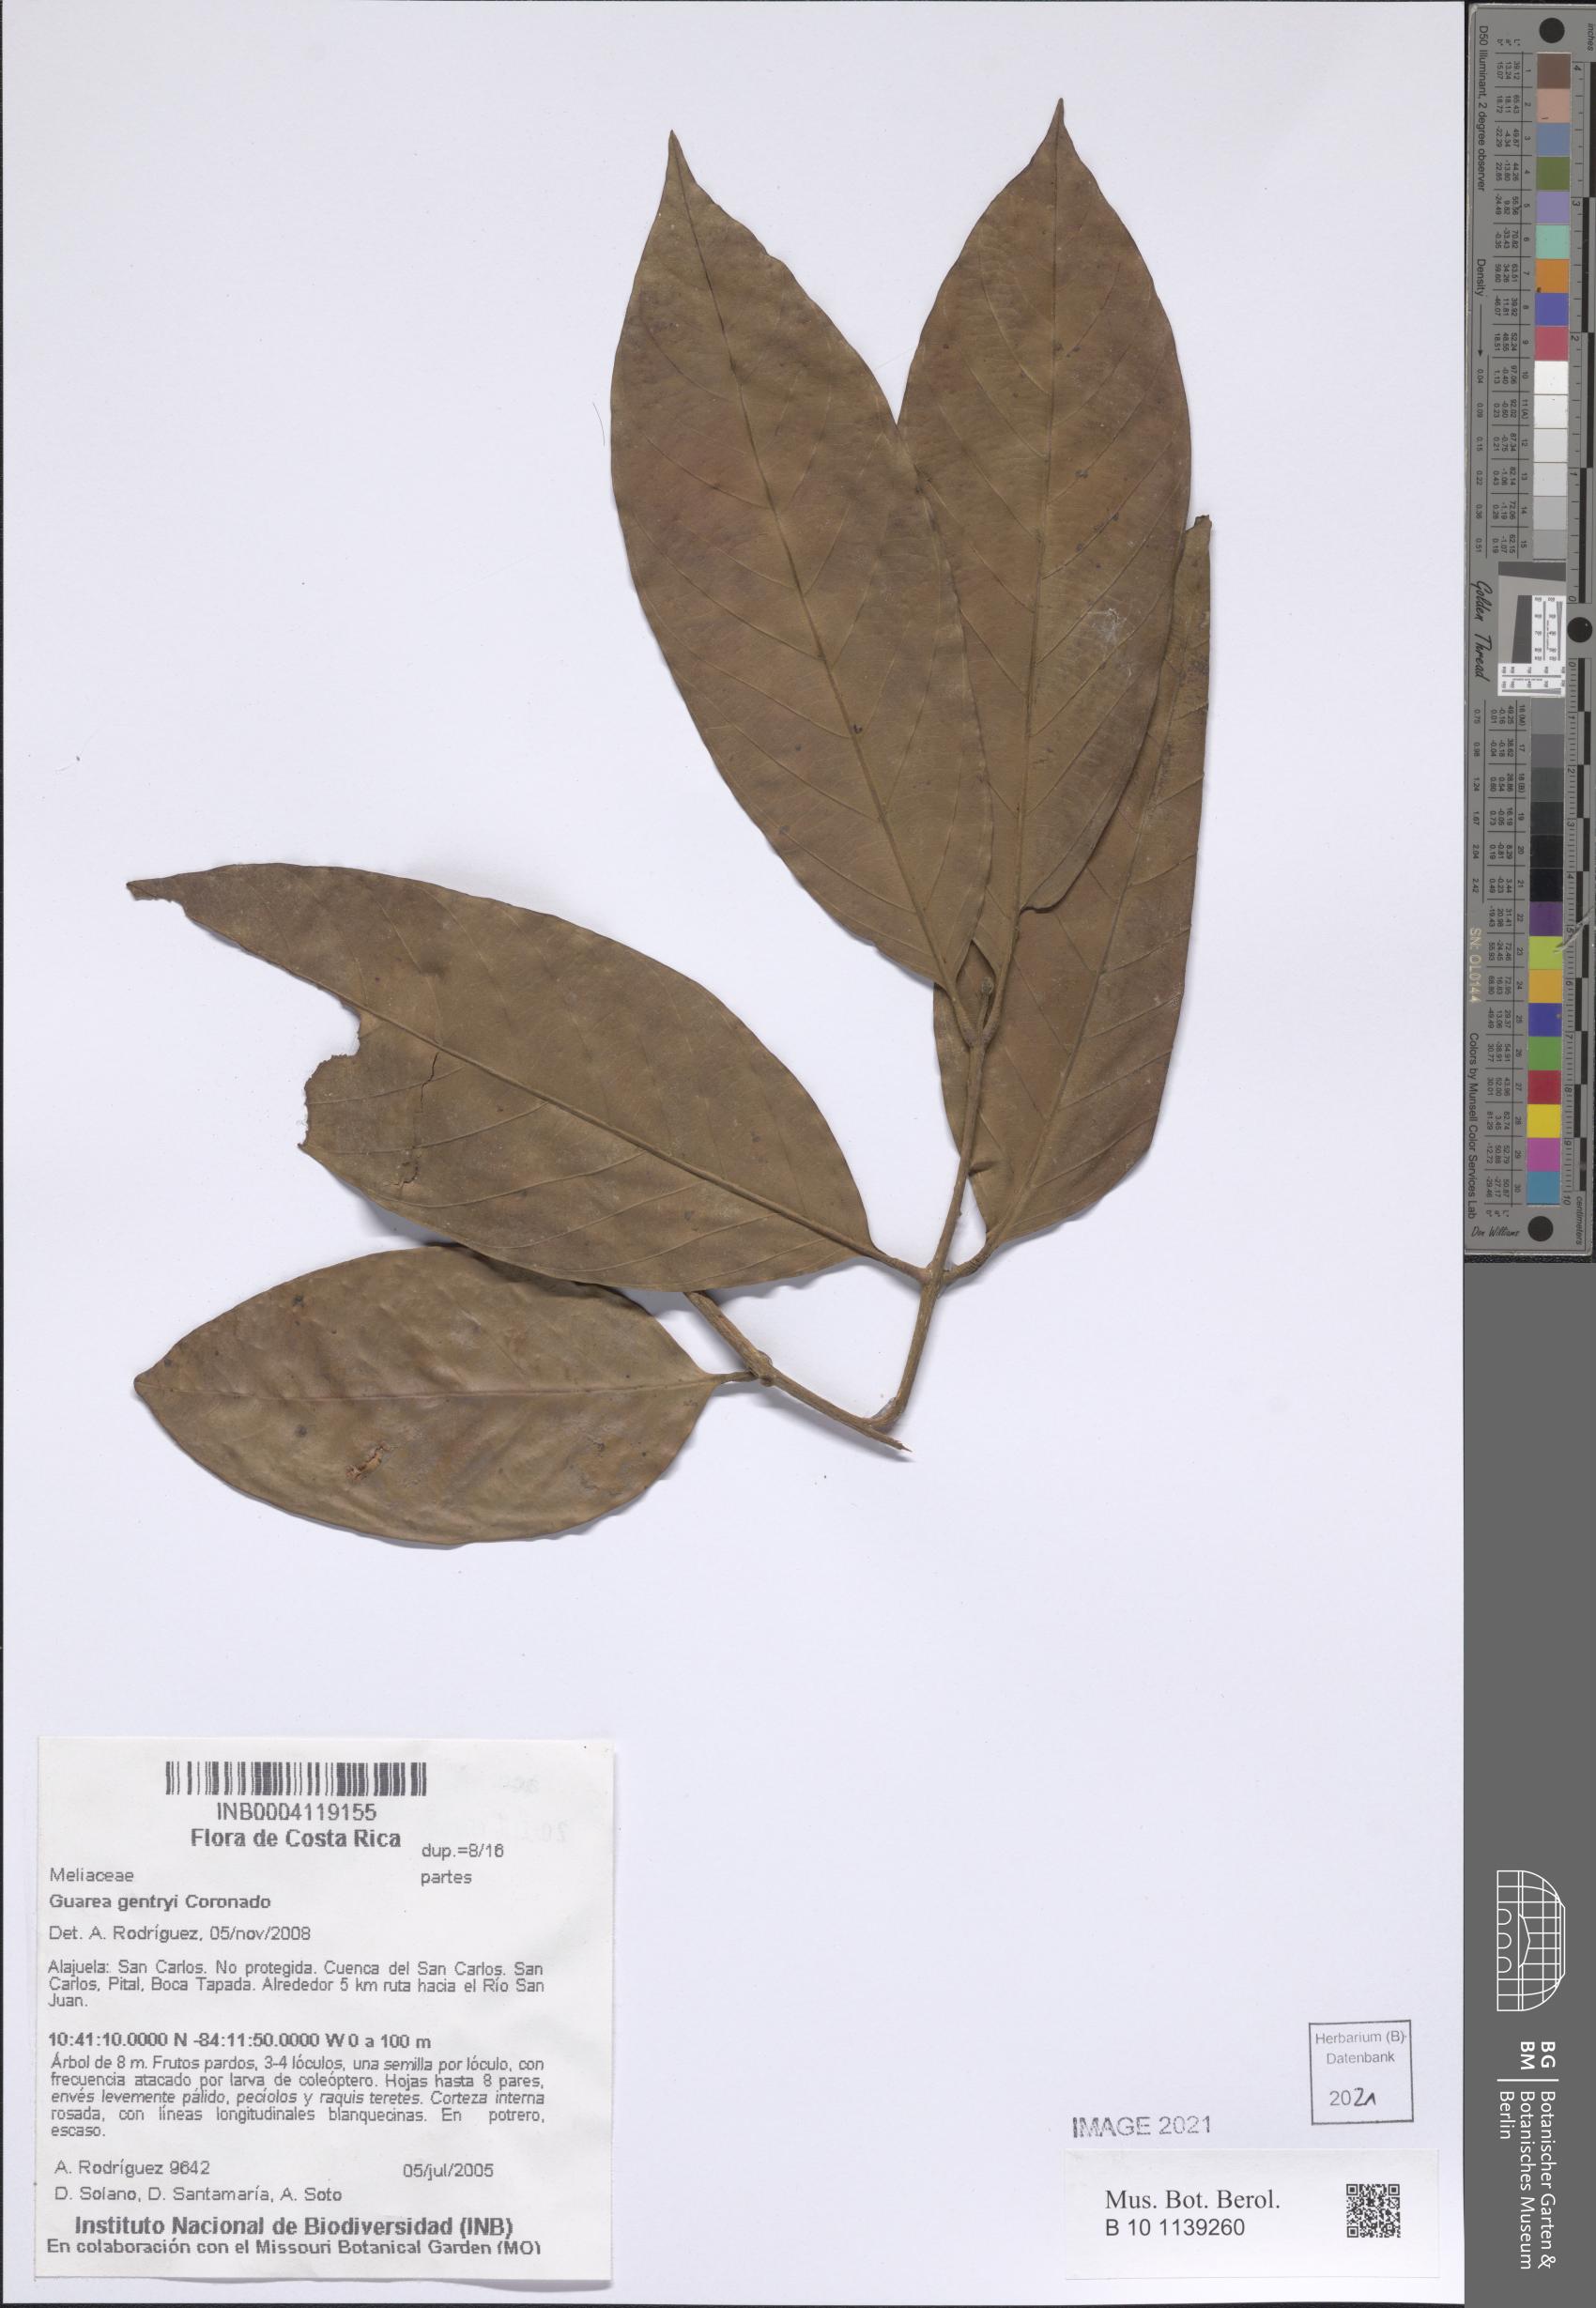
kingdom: Plantae
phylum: Tracheophyta
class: Magnoliopsida
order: Sapindales
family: Meliaceae
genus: Guarea
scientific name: Guarea gentryi
